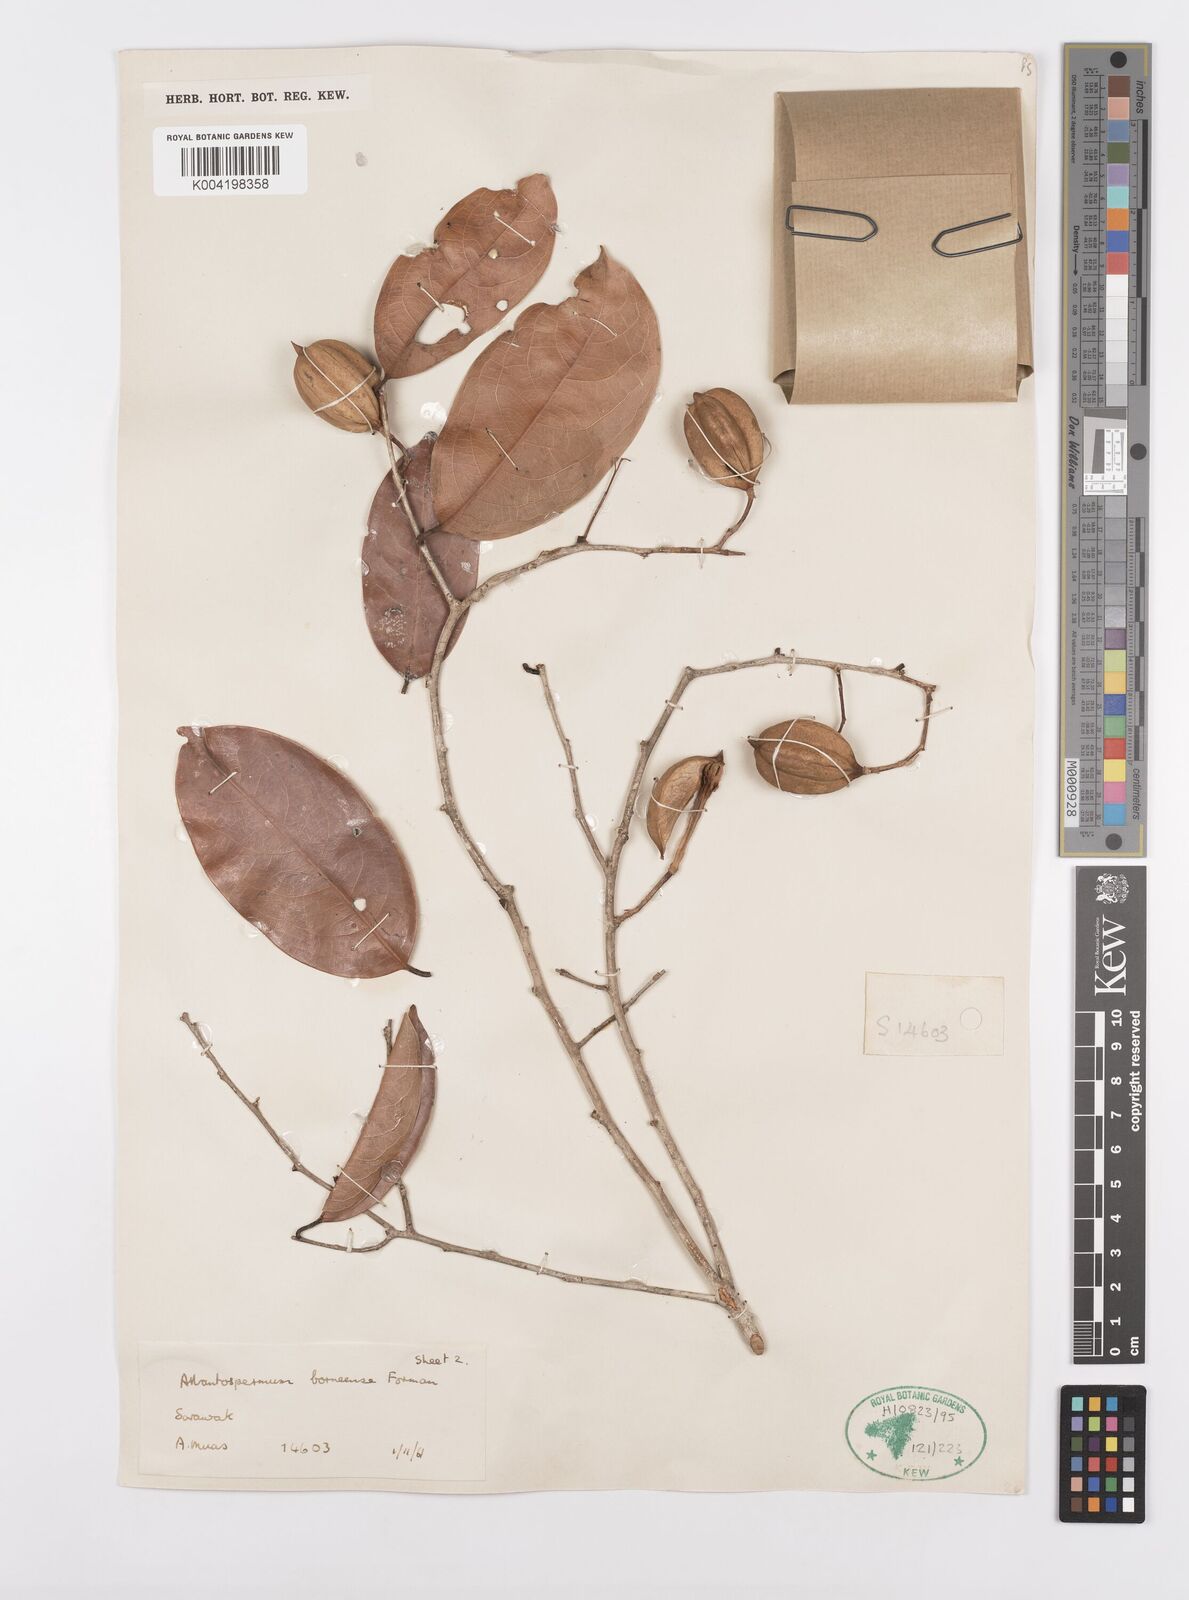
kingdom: Plantae
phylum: Tracheophyta
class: Magnoliopsida
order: Malpighiales
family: Ixonanthaceae
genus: Allantospermum
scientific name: Allantospermum borneense
